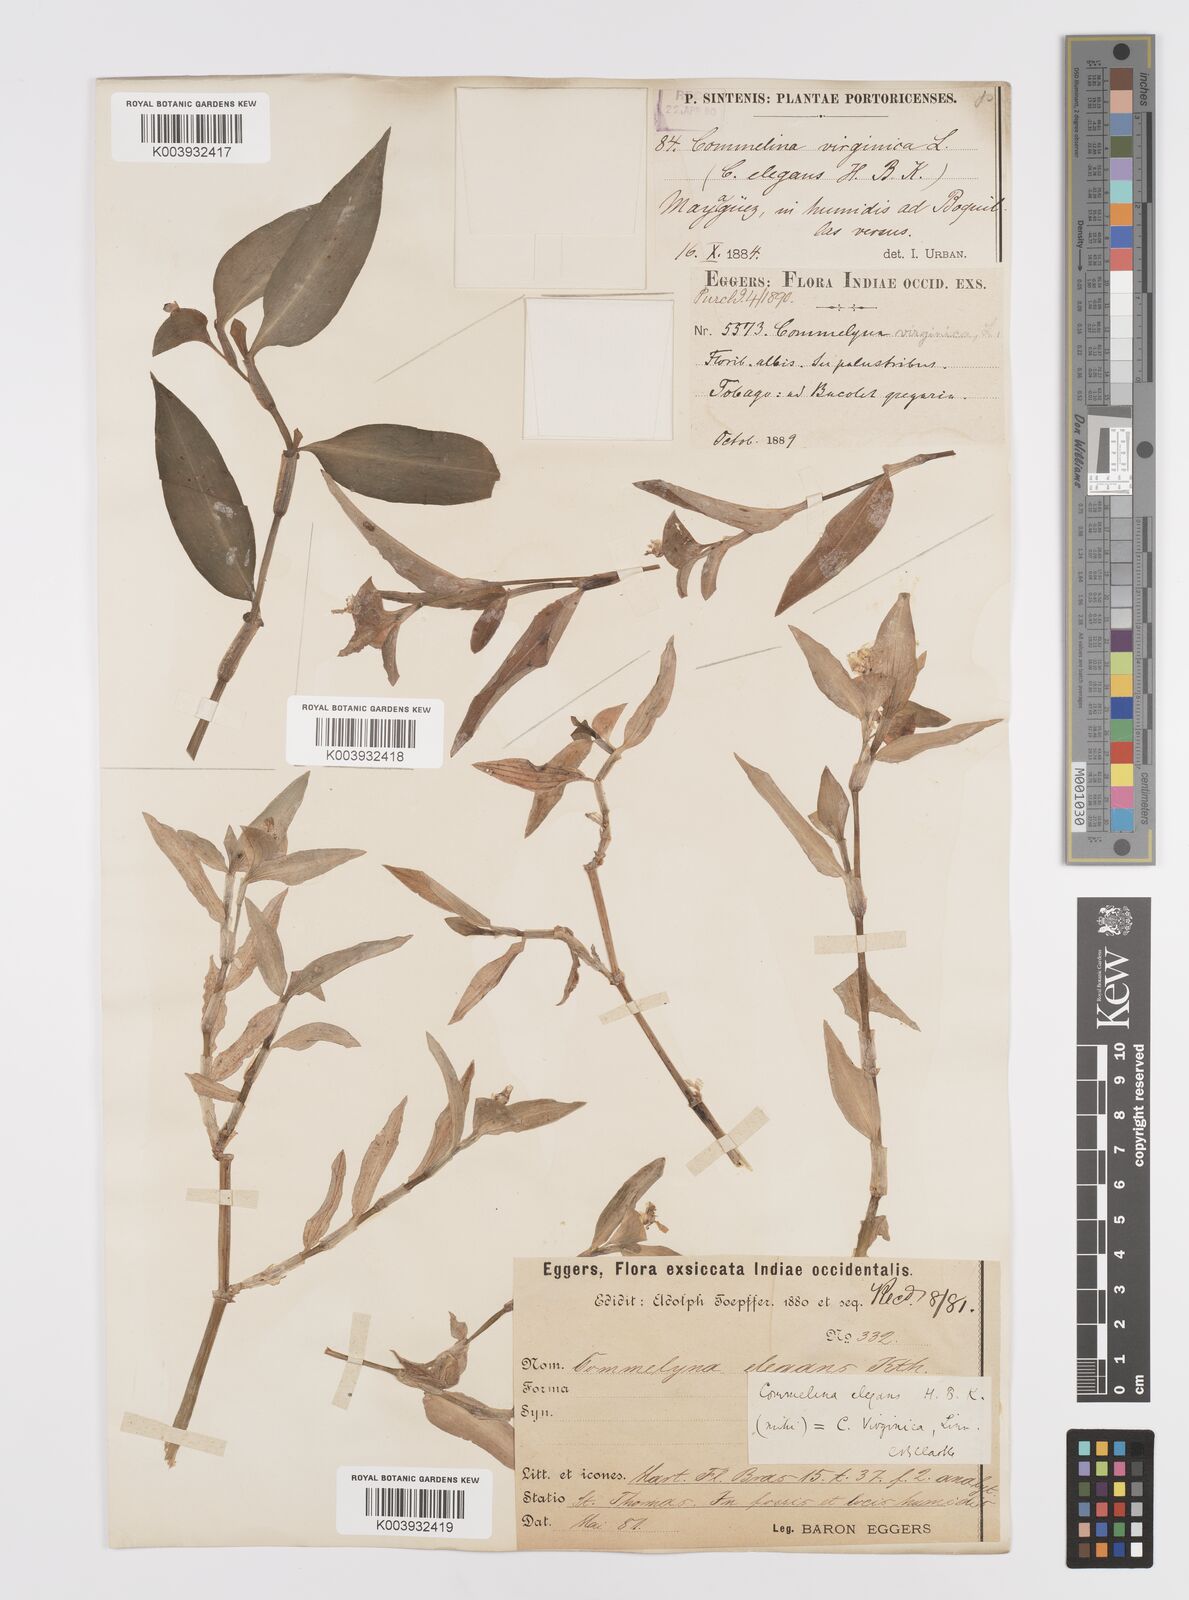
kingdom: Plantae
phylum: Tracheophyta
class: Liliopsida
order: Commelinales
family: Commelinaceae
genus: Commelina
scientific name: Commelina erecta
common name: Blousel blommetjie
